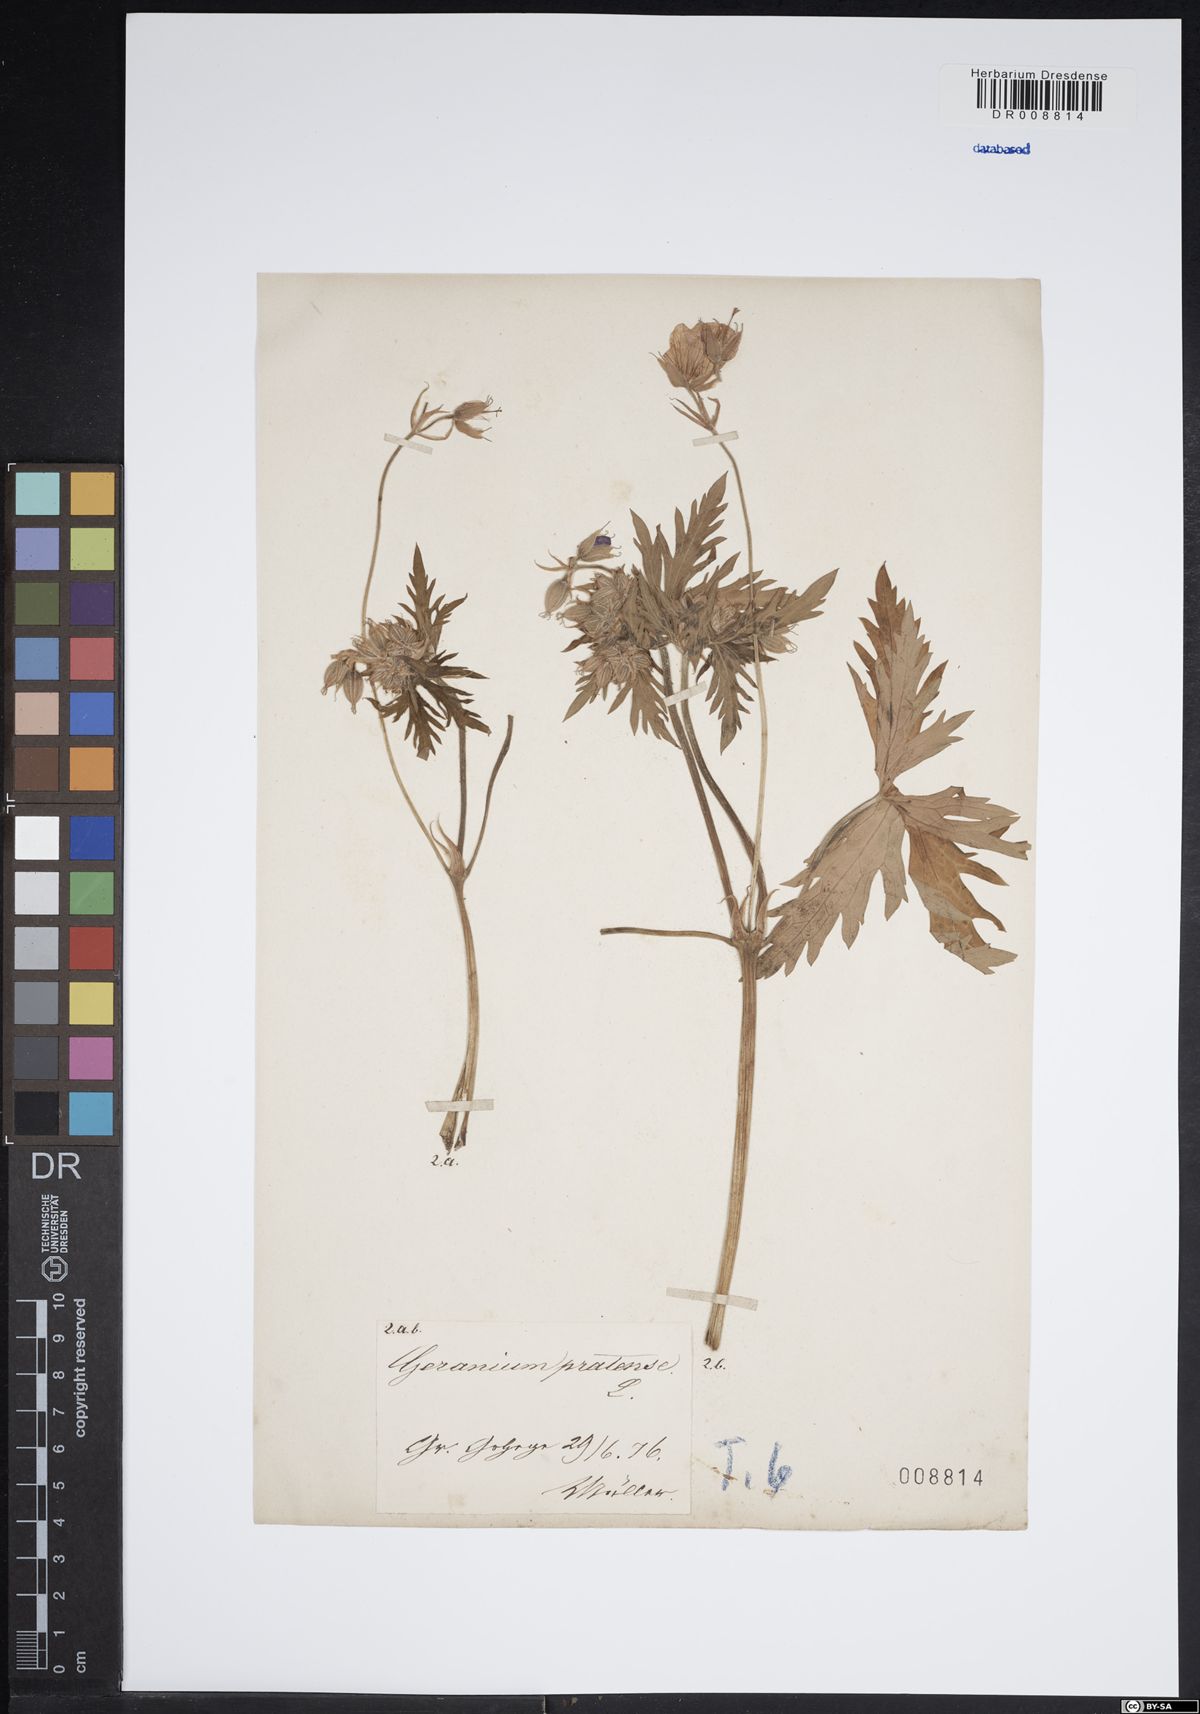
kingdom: Plantae
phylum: Tracheophyta
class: Magnoliopsida
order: Geraniales
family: Geraniaceae
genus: Geranium
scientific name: Geranium pratense
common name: Meadow crane's-bill
